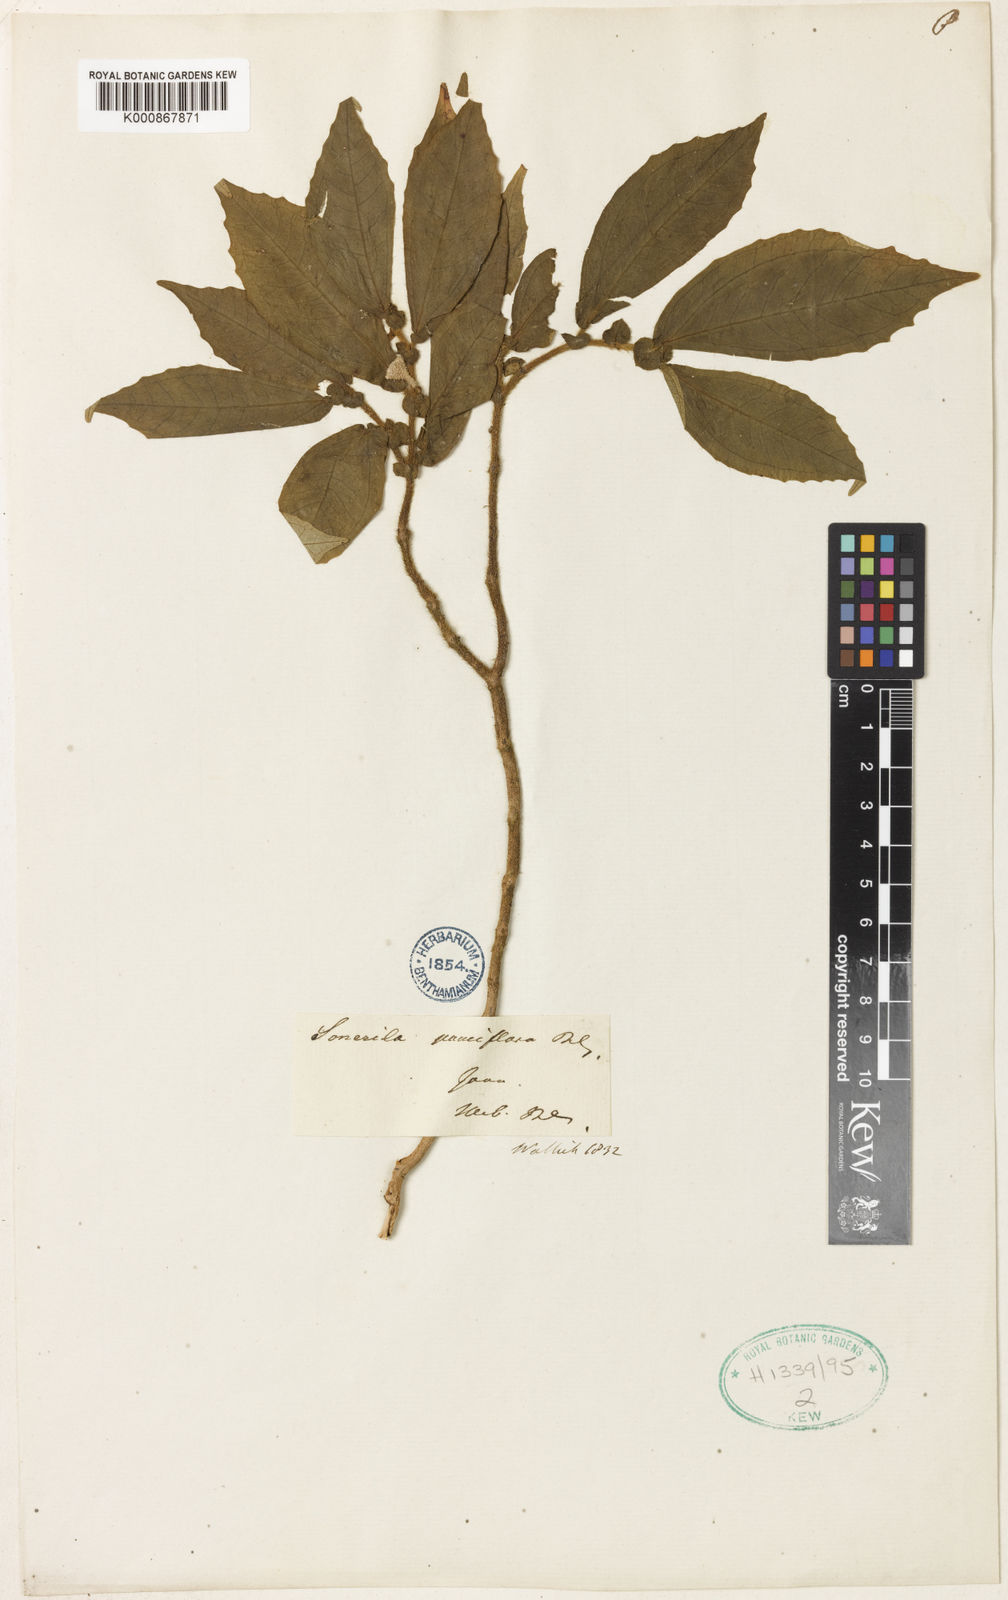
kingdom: Plantae
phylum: Tracheophyta
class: Magnoliopsida
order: Myrtales
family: Melastomataceae
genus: Sonerila
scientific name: Sonerila heterophylla
